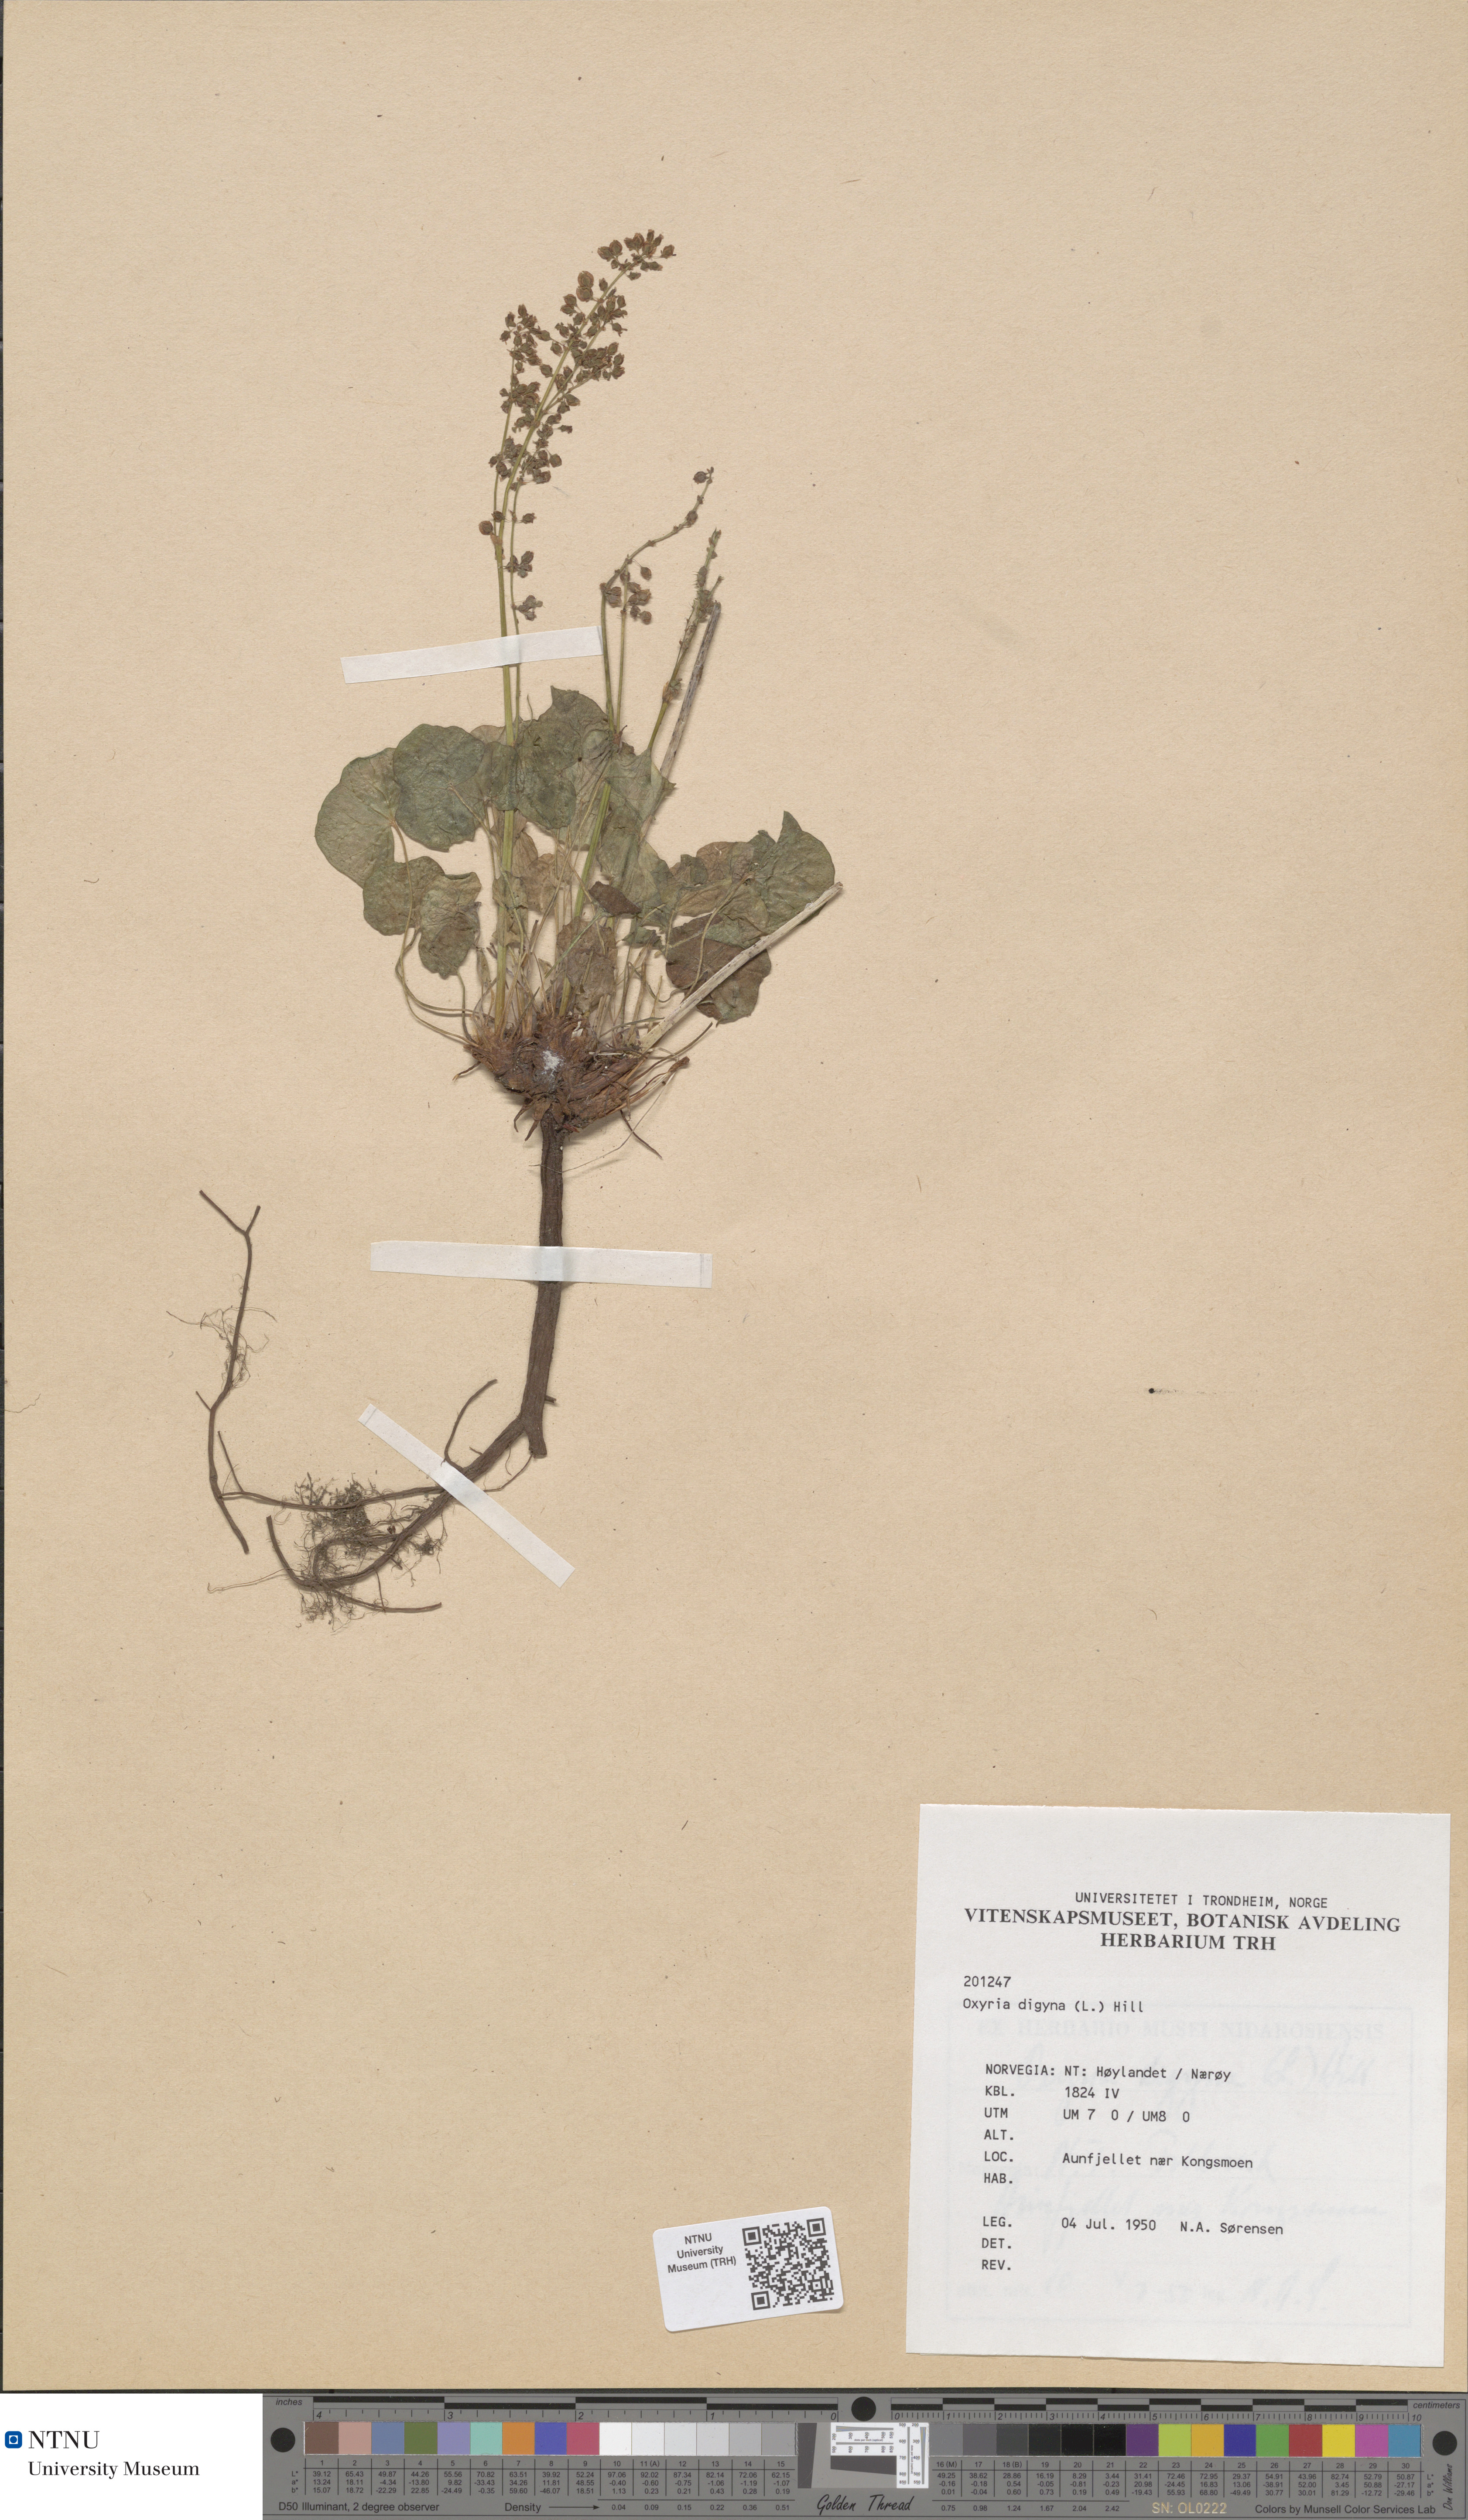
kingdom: Plantae
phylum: Tracheophyta
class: Magnoliopsida
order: Caryophyllales
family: Polygonaceae
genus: Oxyria
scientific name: Oxyria digyna
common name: Alpine mountain-sorrel
